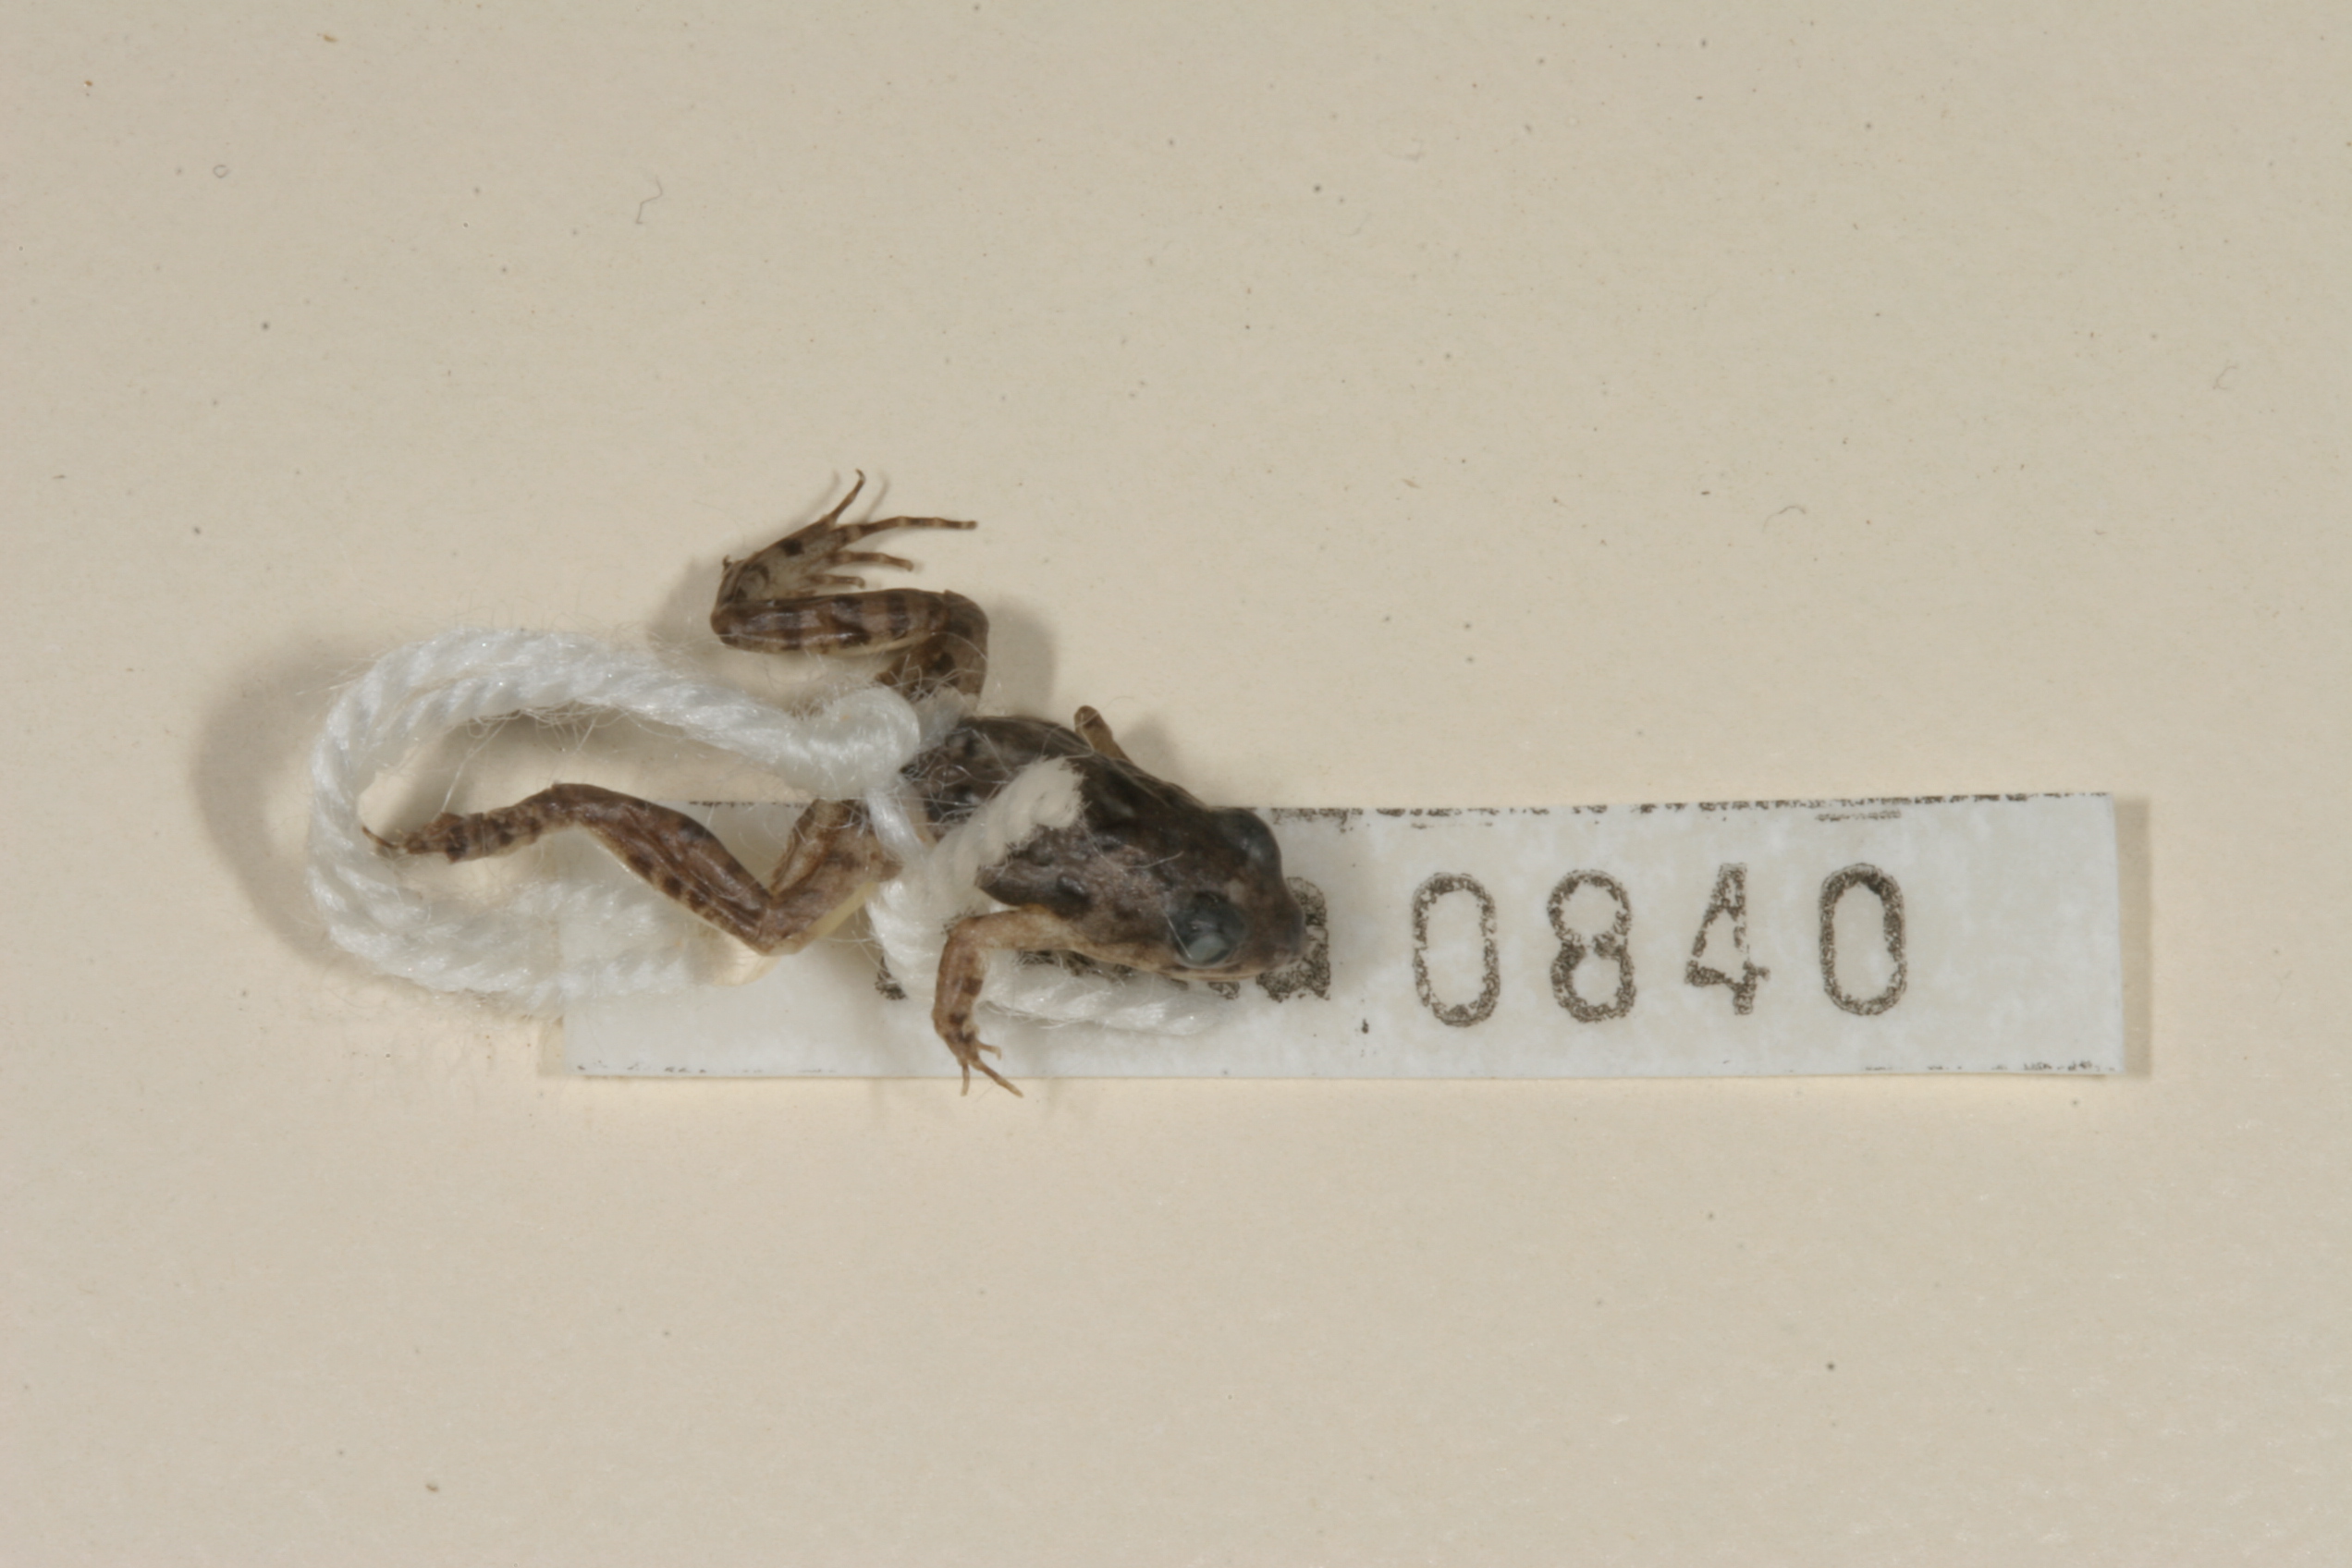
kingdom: Animalia
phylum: Chordata
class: Amphibia
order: Anura
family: Phrynobatrachidae
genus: Phrynobatrachus
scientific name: Phrynobatrachus mababiensis
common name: Dwarf puddle frog
